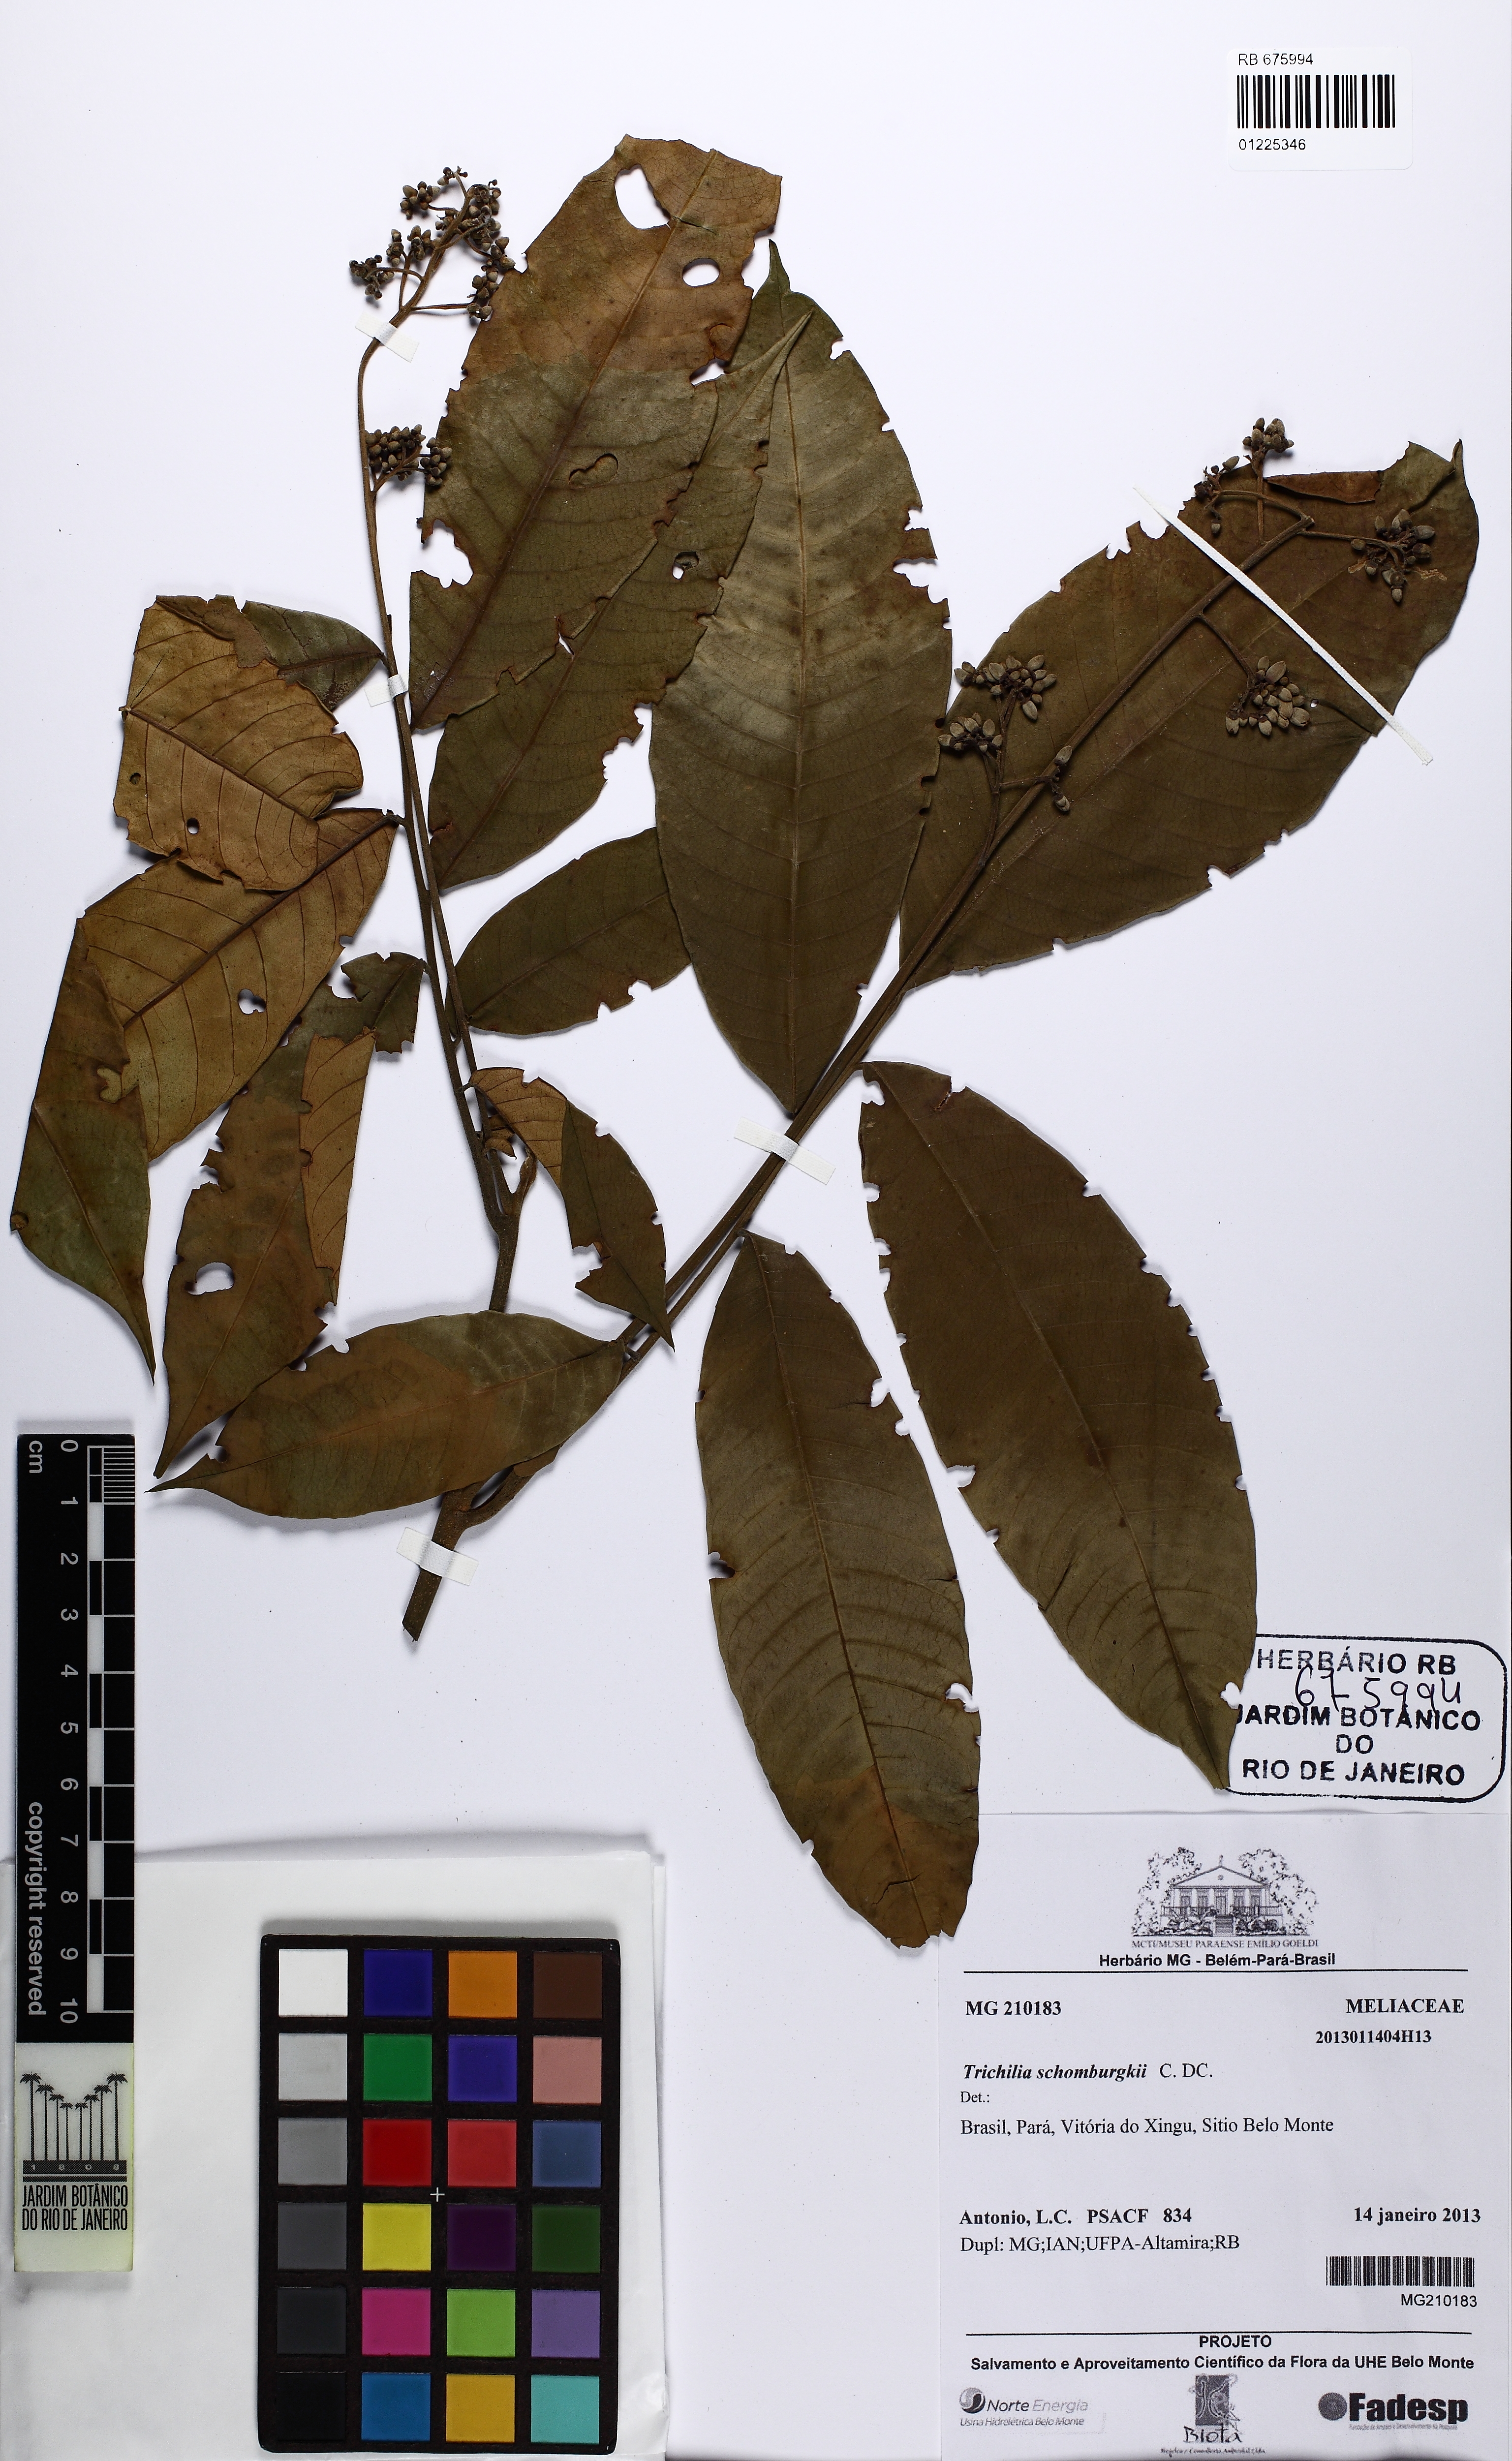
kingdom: Plantae
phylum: Tracheophyta
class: Magnoliopsida
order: Sapindales
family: Meliaceae
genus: Trichilia
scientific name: Trichilia schomburgkii
